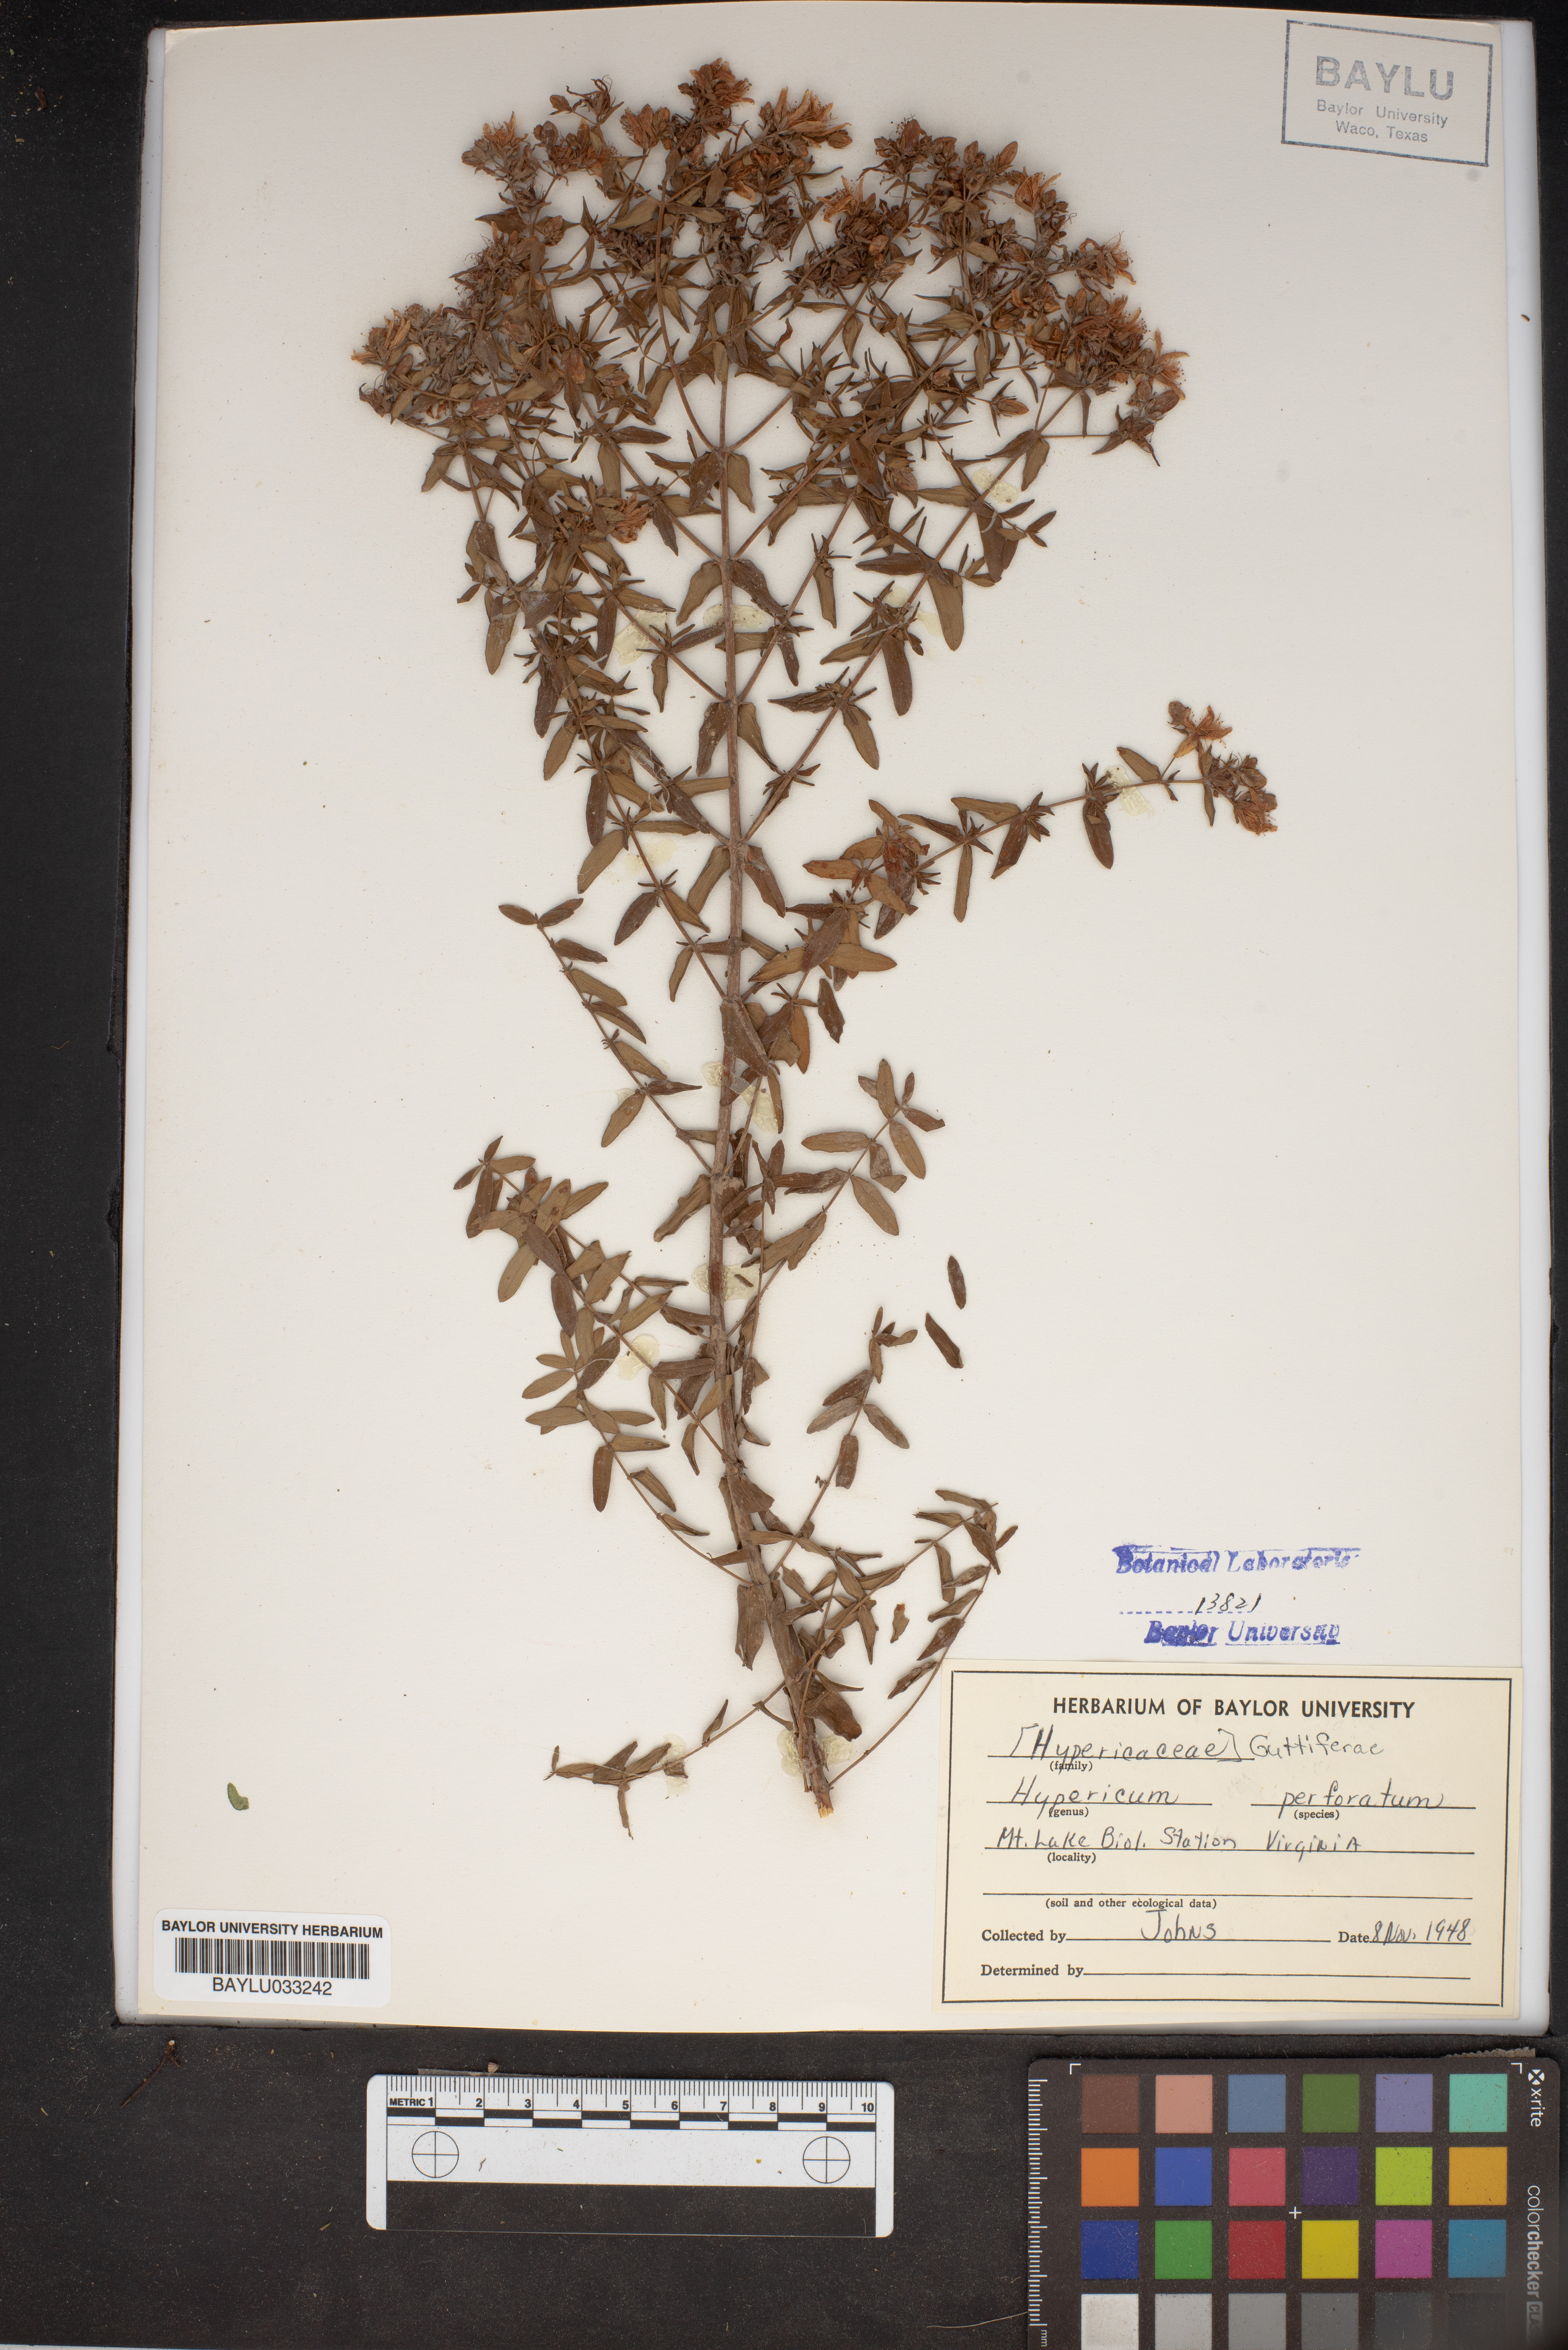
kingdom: Plantae
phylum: Tracheophyta
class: Magnoliopsida
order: Malpighiales
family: Hypericaceae
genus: Hypericum
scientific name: Hypericum perforatum
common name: Common st. johnswort
